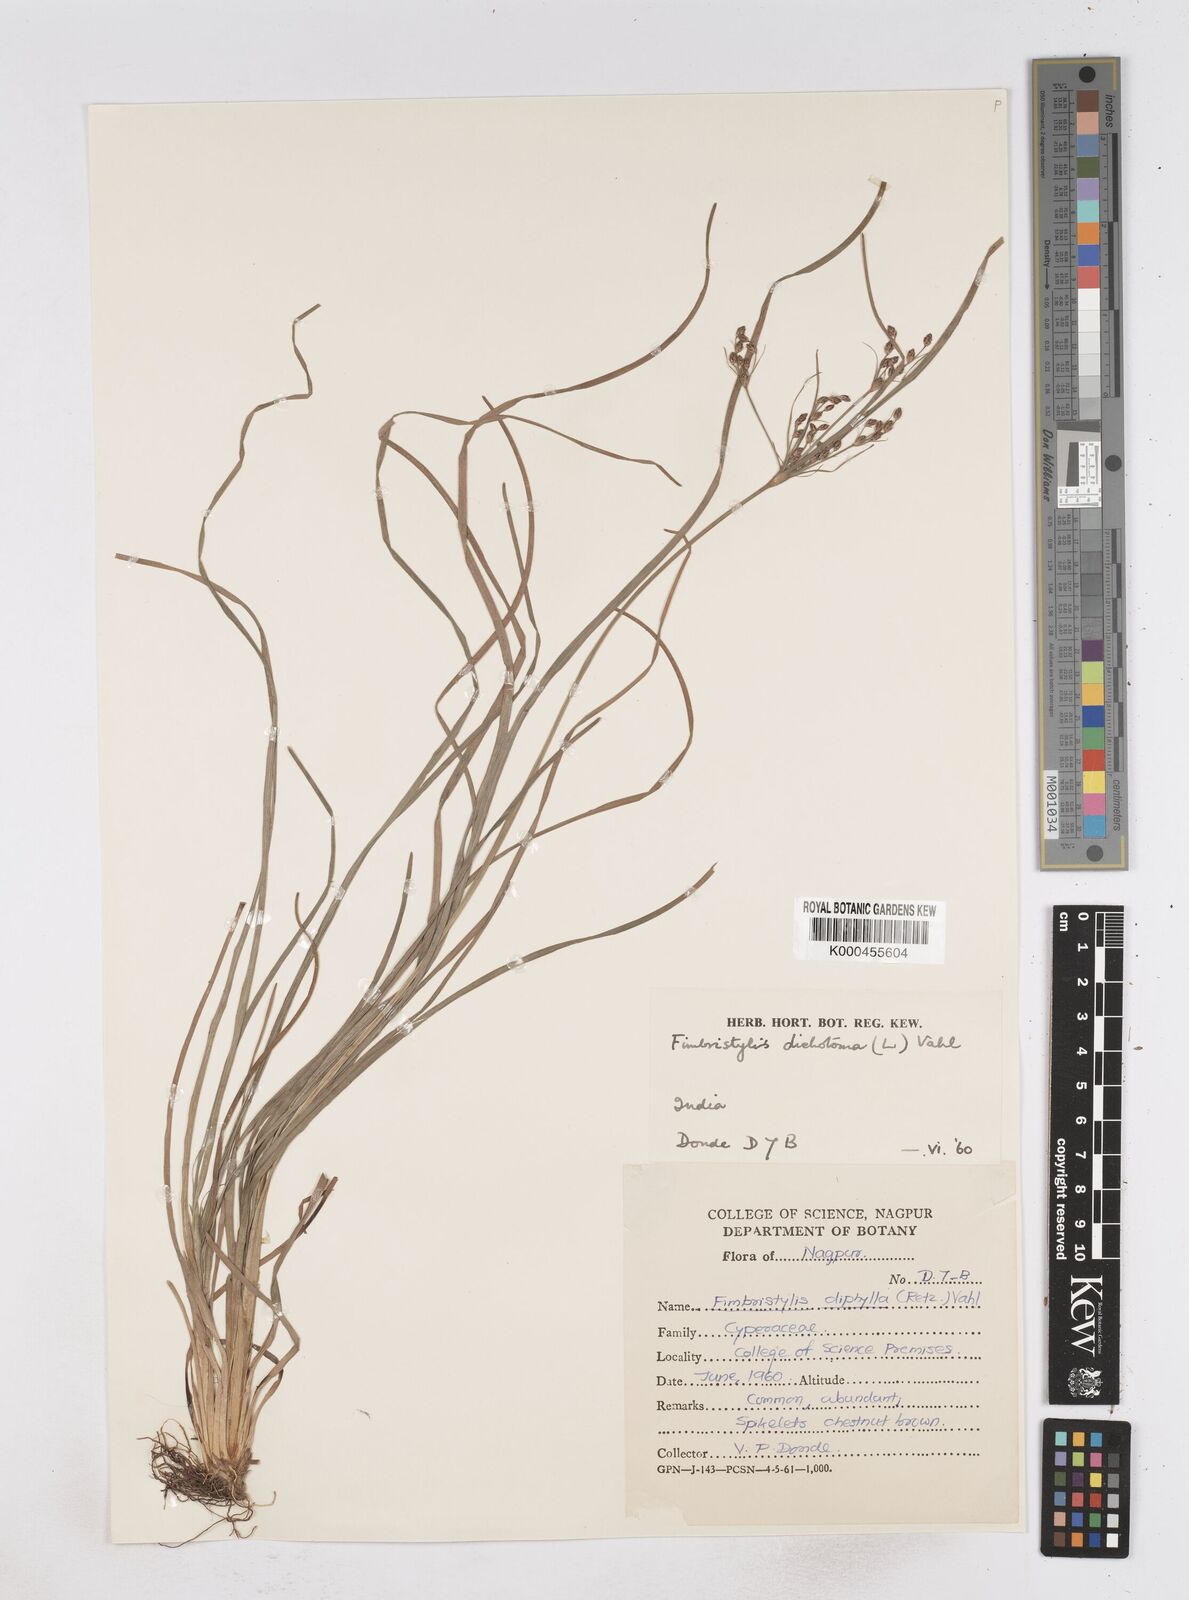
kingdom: Plantae
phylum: Tracheophyta
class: Liliopsida
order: Poales
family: Cyperaceae
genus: Fimbristylis
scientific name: Fimbristylis dichotoma
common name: Forked fimbry
